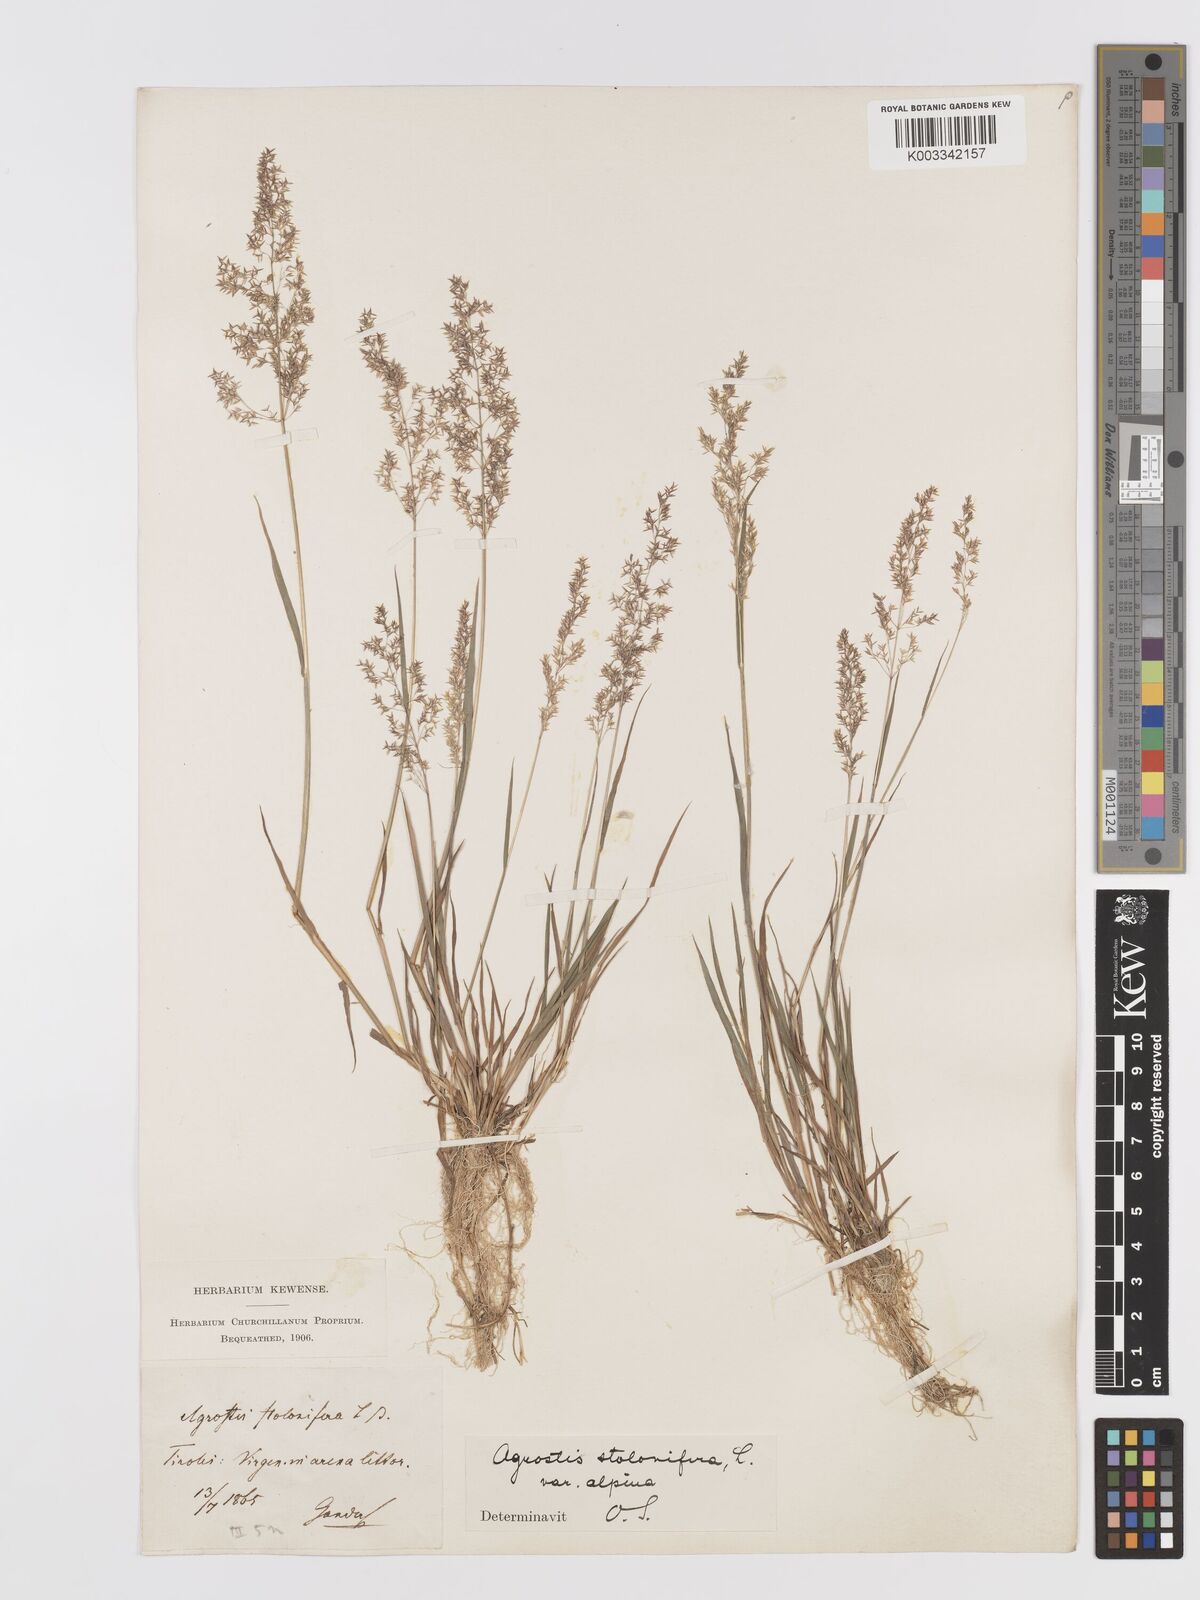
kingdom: Plantae
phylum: Tracheophyta
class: Liliopsida
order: Poales
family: Poaceae
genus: Agrostis
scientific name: Agrostis stolonifera
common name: Creeping bentgrass
